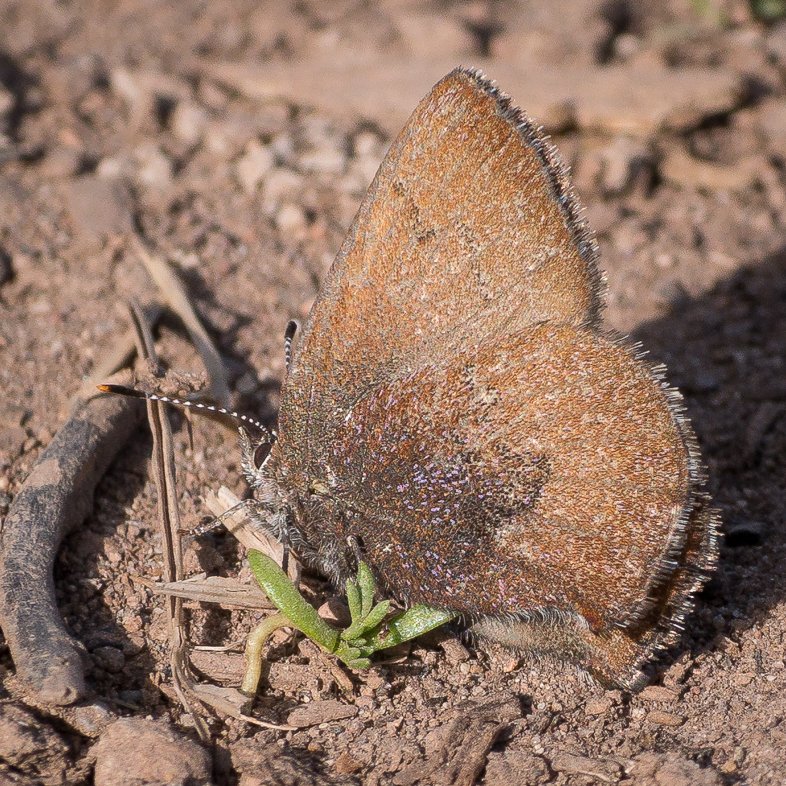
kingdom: Animalia
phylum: Arthropoda
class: Insecta
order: Lepidoptera
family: Lycaenidae
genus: Incisalia
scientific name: Incisalia irioides
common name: Brown Elfin
